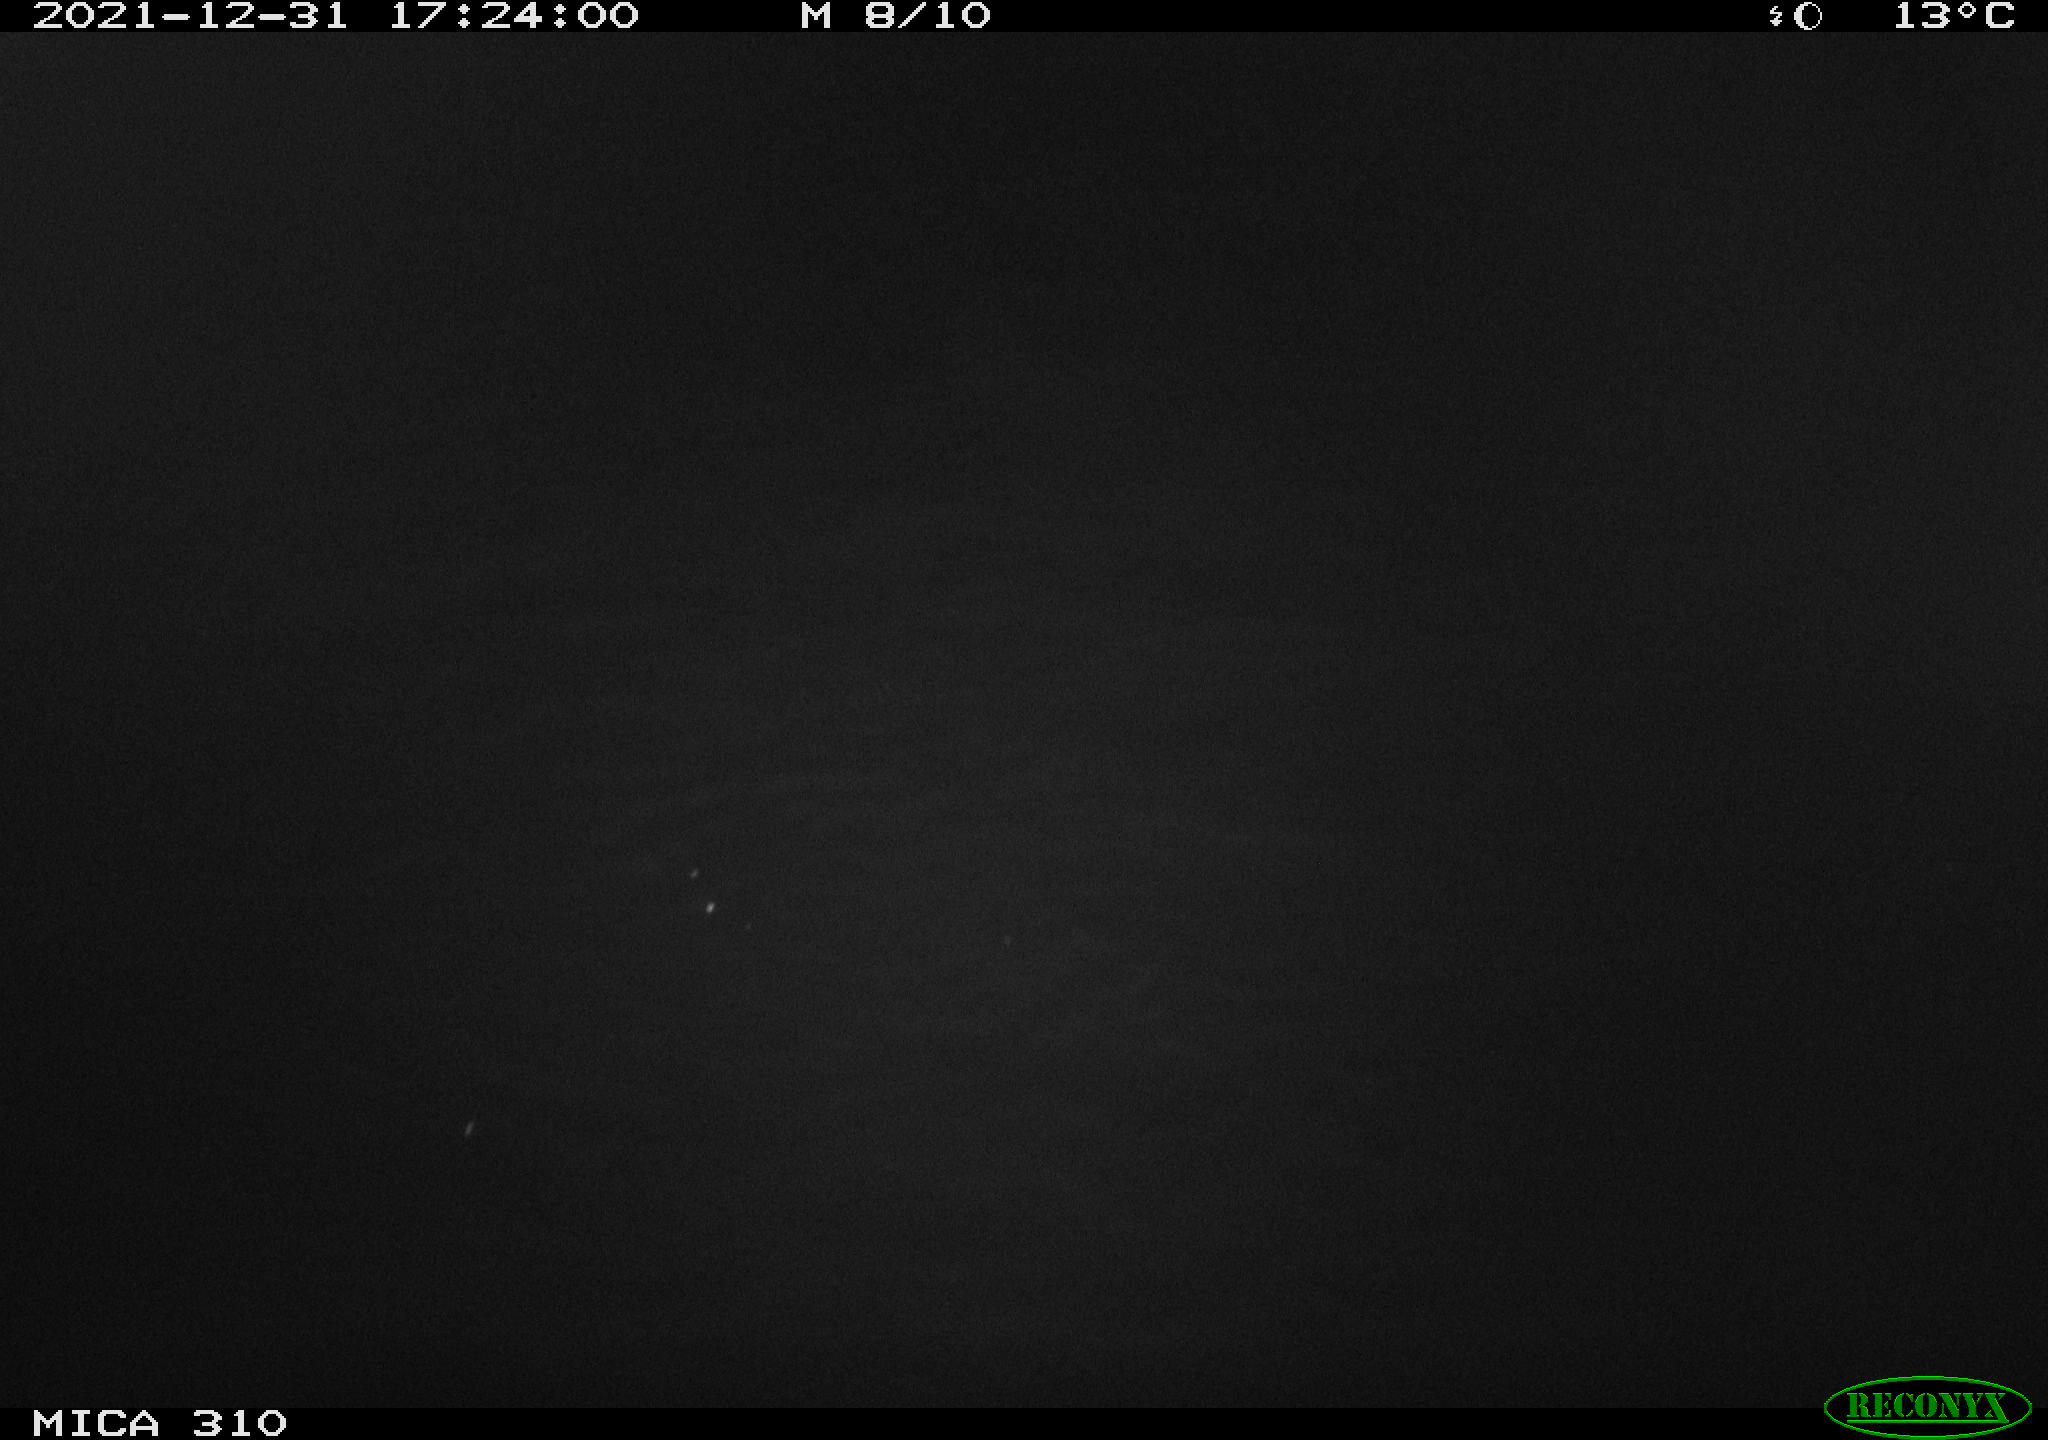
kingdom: Animalia
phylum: Chordata
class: Aves
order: Gruiformes
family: Rallidae
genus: Gallinula
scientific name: Gallinula chloropus
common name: Common moorhen
